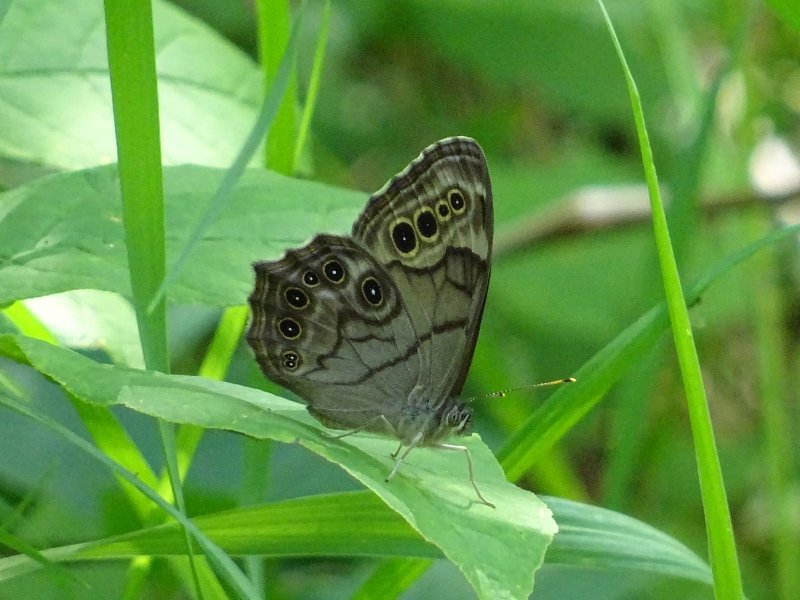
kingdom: Animalia
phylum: Arthropoda
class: Insecta
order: Lepidoptera
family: Nymphalidae
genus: Lethe
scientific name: Lethe anthedon
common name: Northern Pearly-Eye
